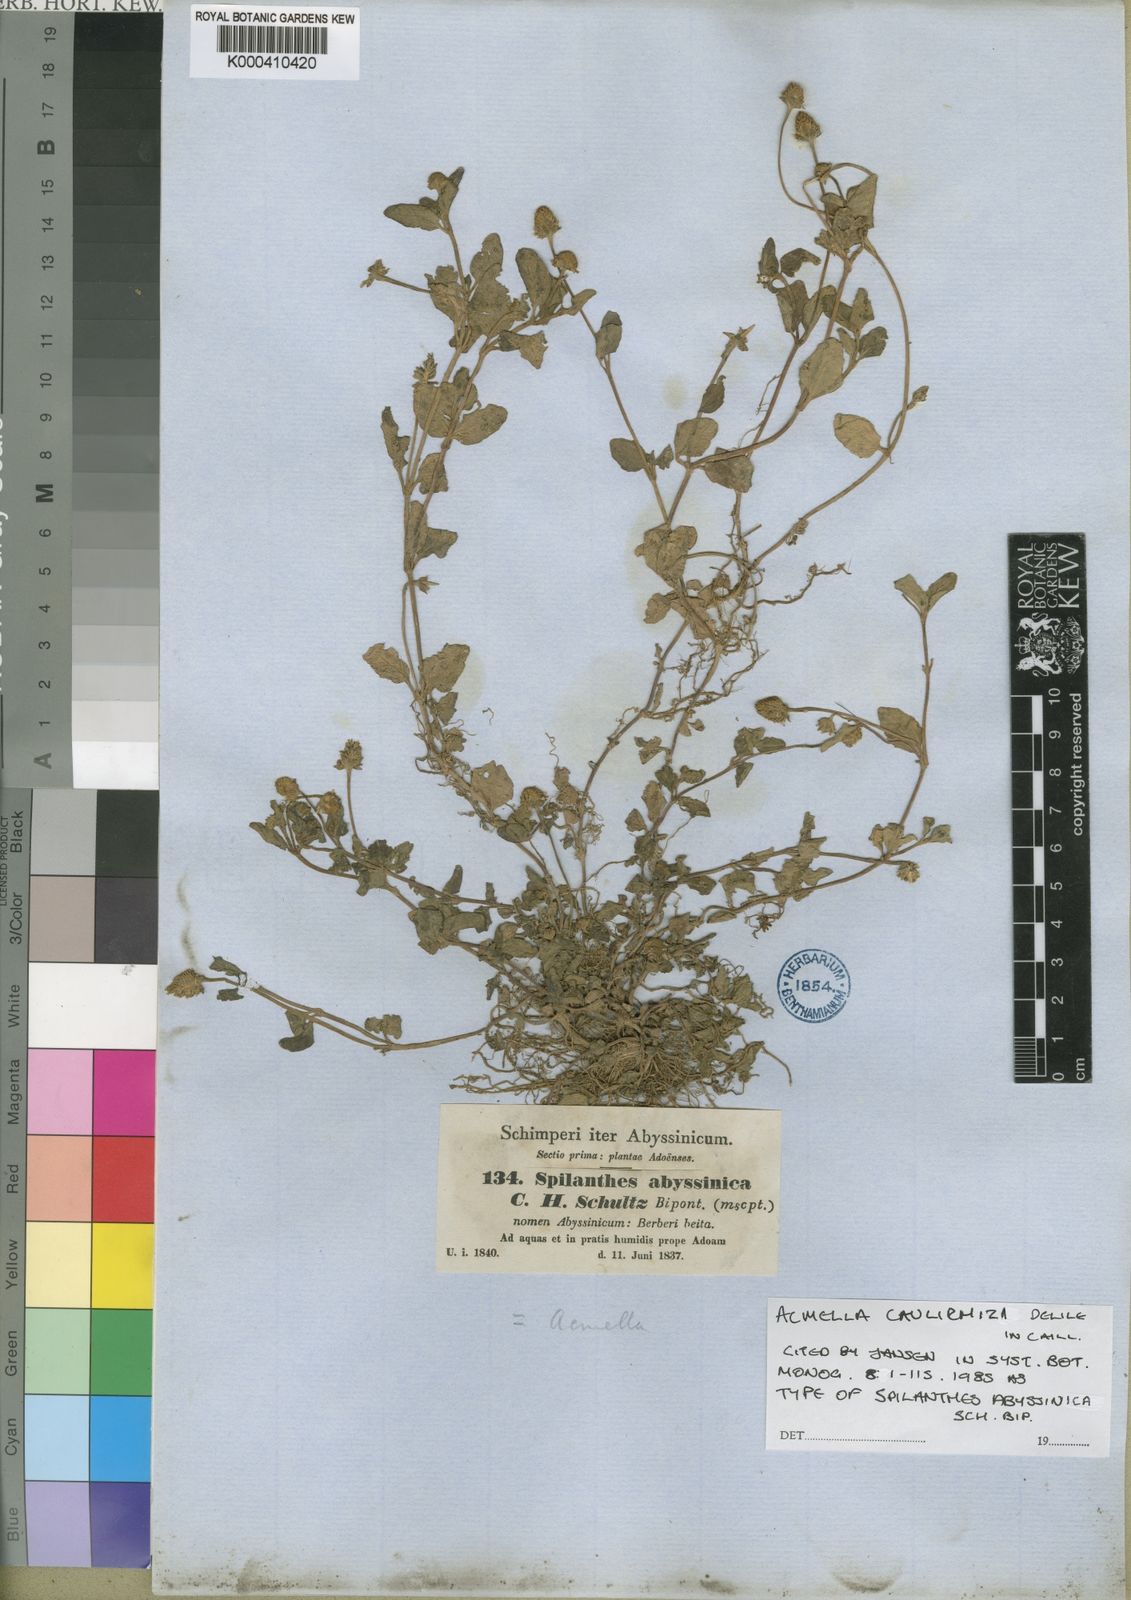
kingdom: Plantae
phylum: Tracheophyta
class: Magnoliopsida
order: Asterales
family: Asteraceae
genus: Acmella
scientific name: Acmella
